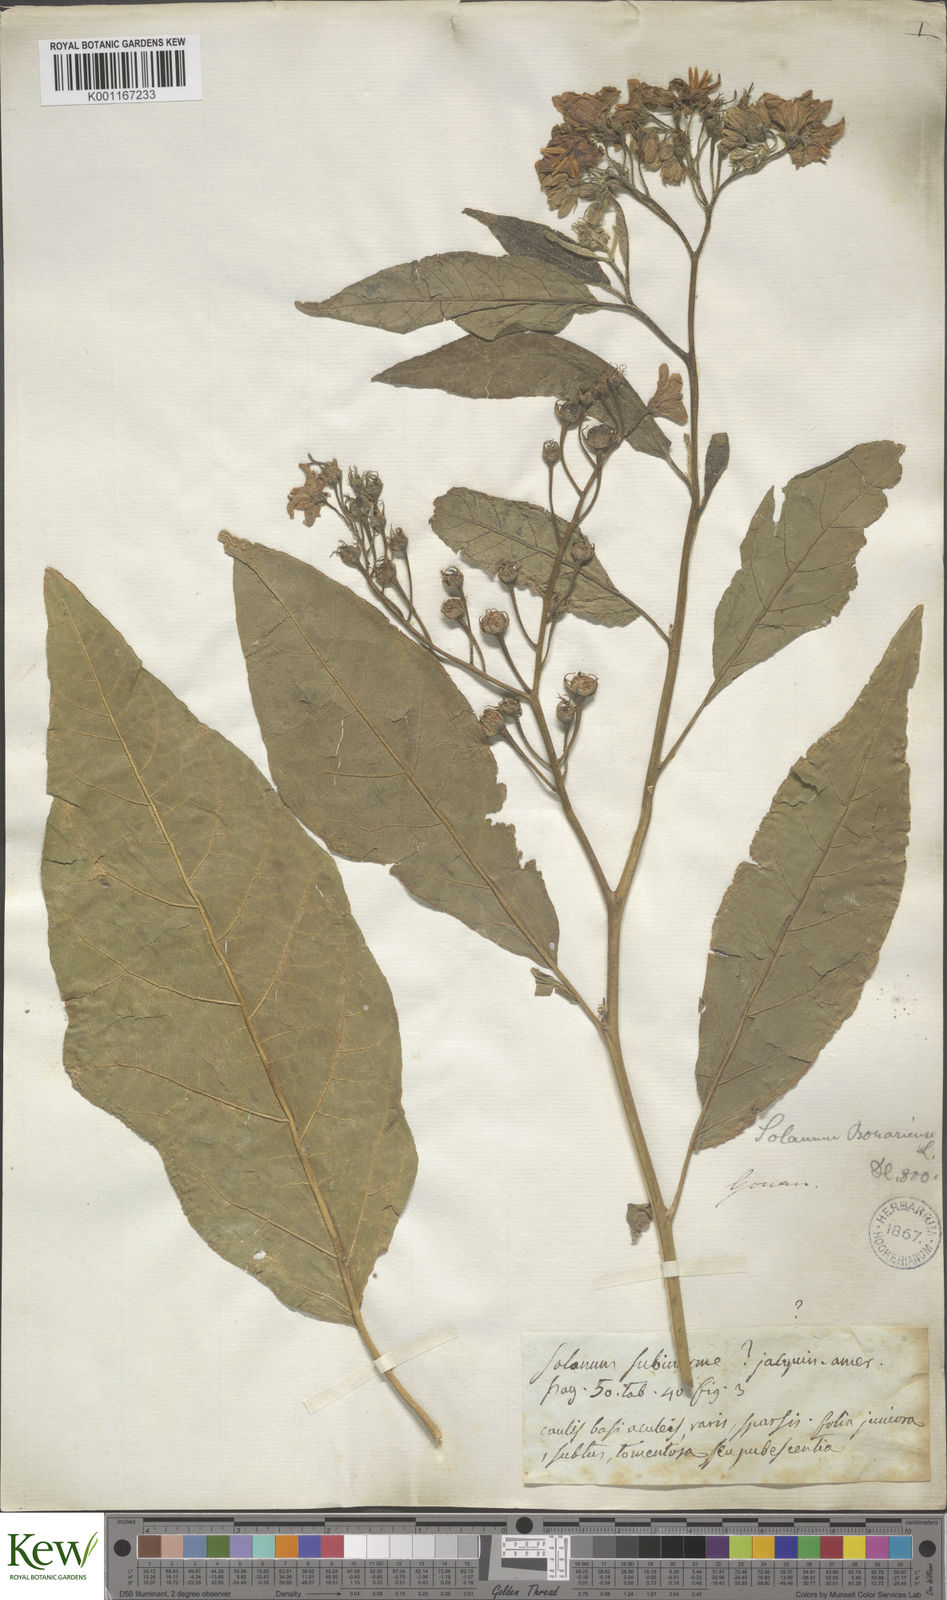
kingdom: Plantae
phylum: Tracheophyta
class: Magnoliopsida
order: Solanales
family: Solanaceae
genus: Solanum
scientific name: Solanum bonariense
